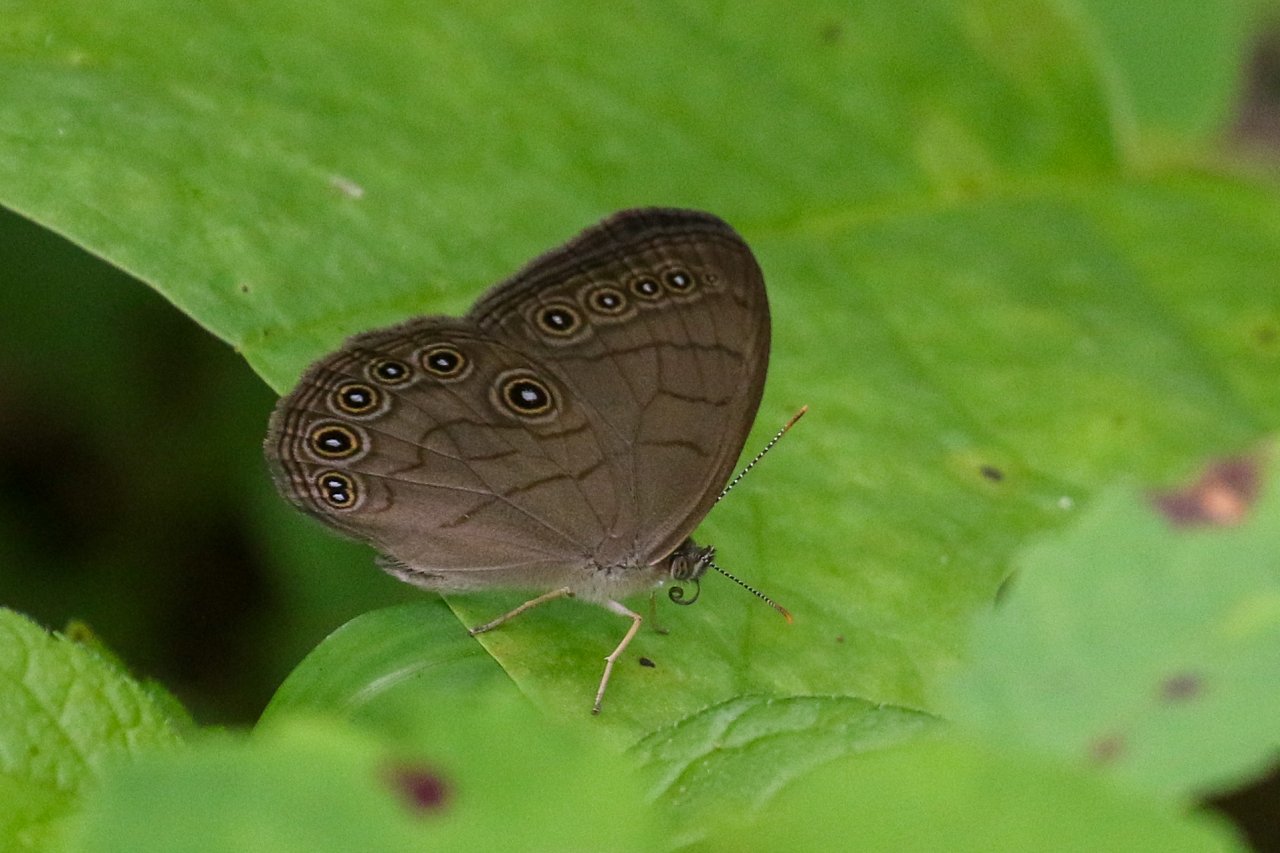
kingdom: Animalia
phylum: Arthropoda
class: Insecta
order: Lepidoptera
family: Nymphalidae
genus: Lethe
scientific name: Lethe eurydice
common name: Appalachian Eyed Brown
